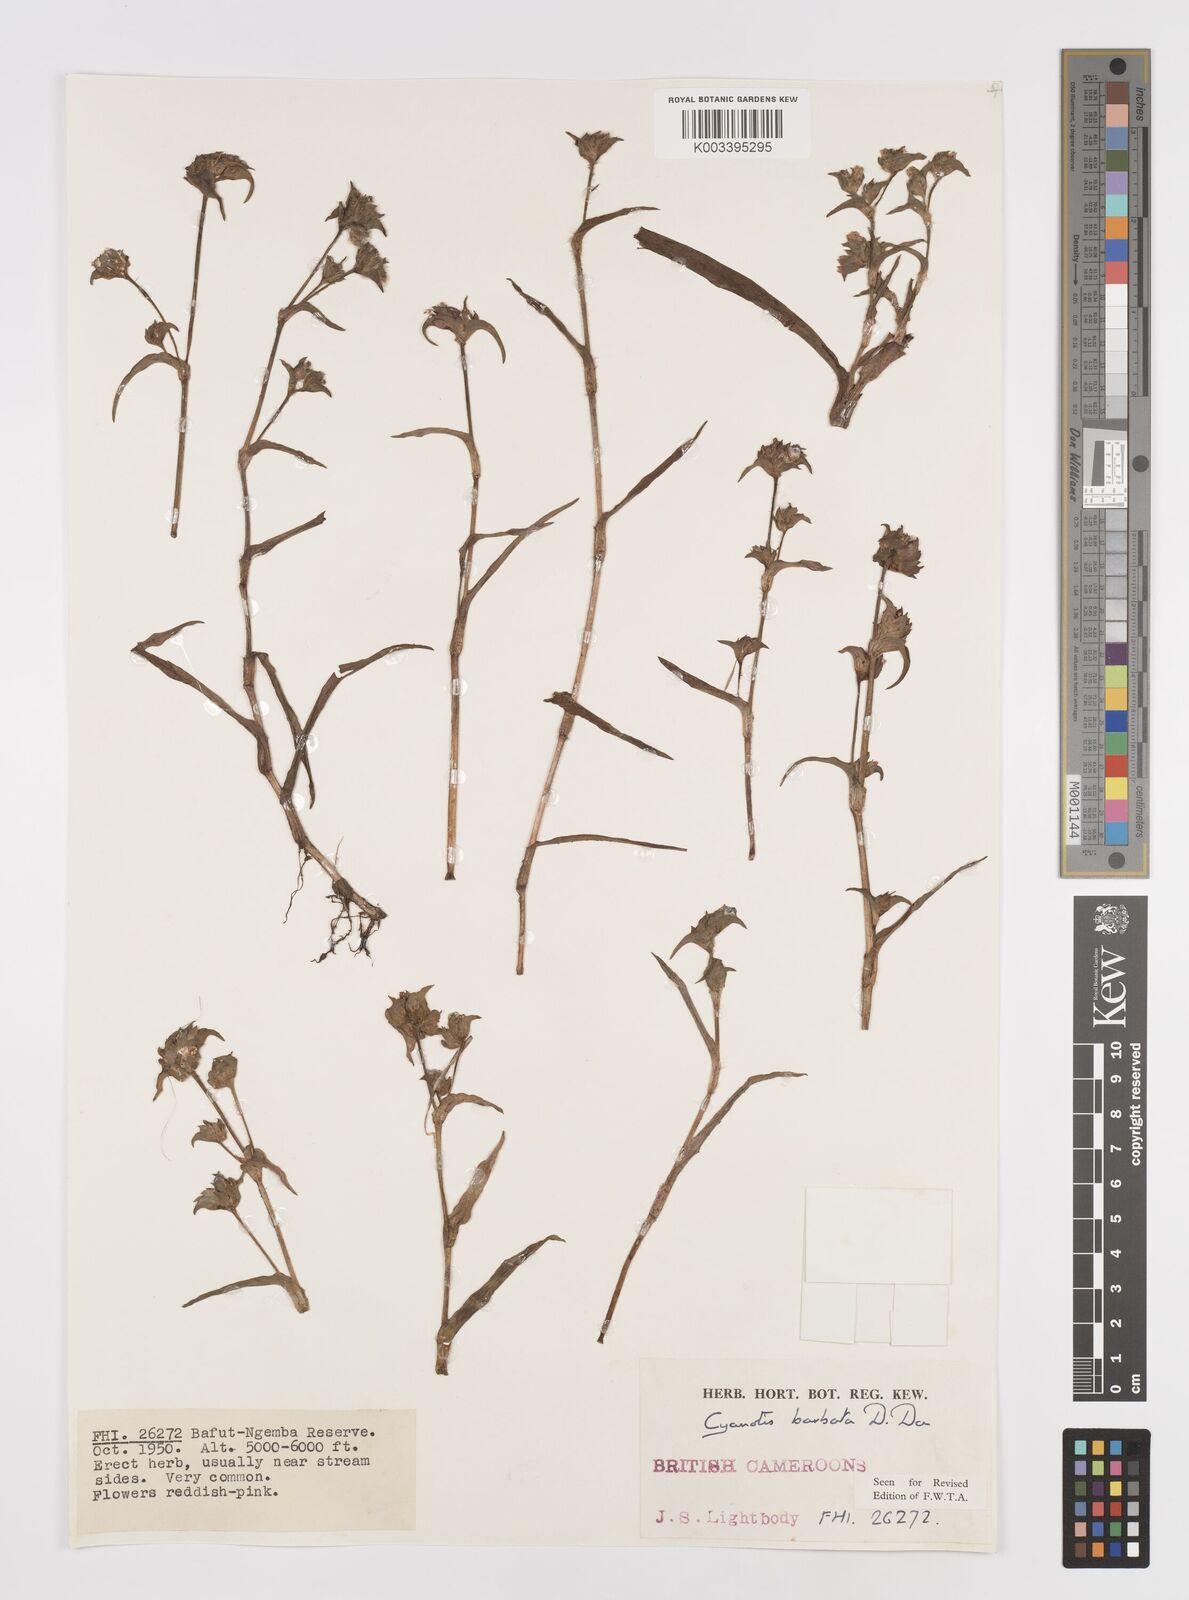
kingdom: Plantae
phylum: Tracheophyta
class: Liliopsida
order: Commelinales
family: Commelinaceae
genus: Cyanotis
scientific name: Cyanotis vaga
